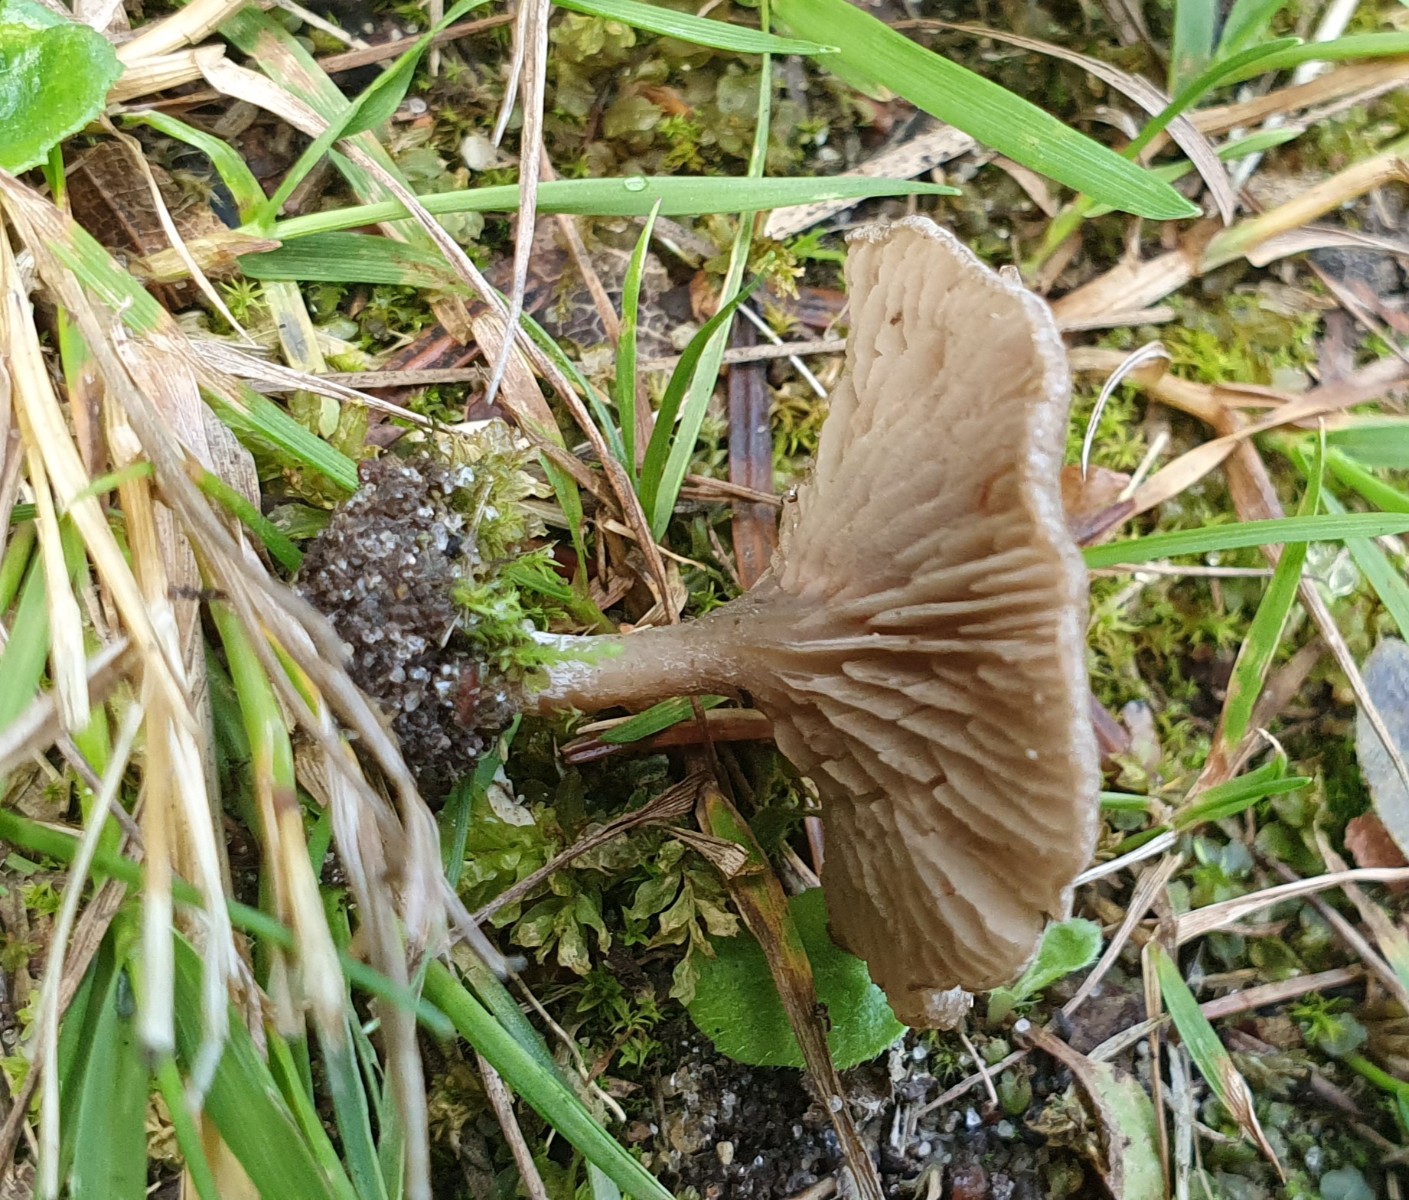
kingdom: Fungi
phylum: Basidiomycota
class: Agaricomycetes
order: Agaricales
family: Entolomataceae
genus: Entoloma
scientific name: Entoloma undatum
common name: bæltet rødblad
